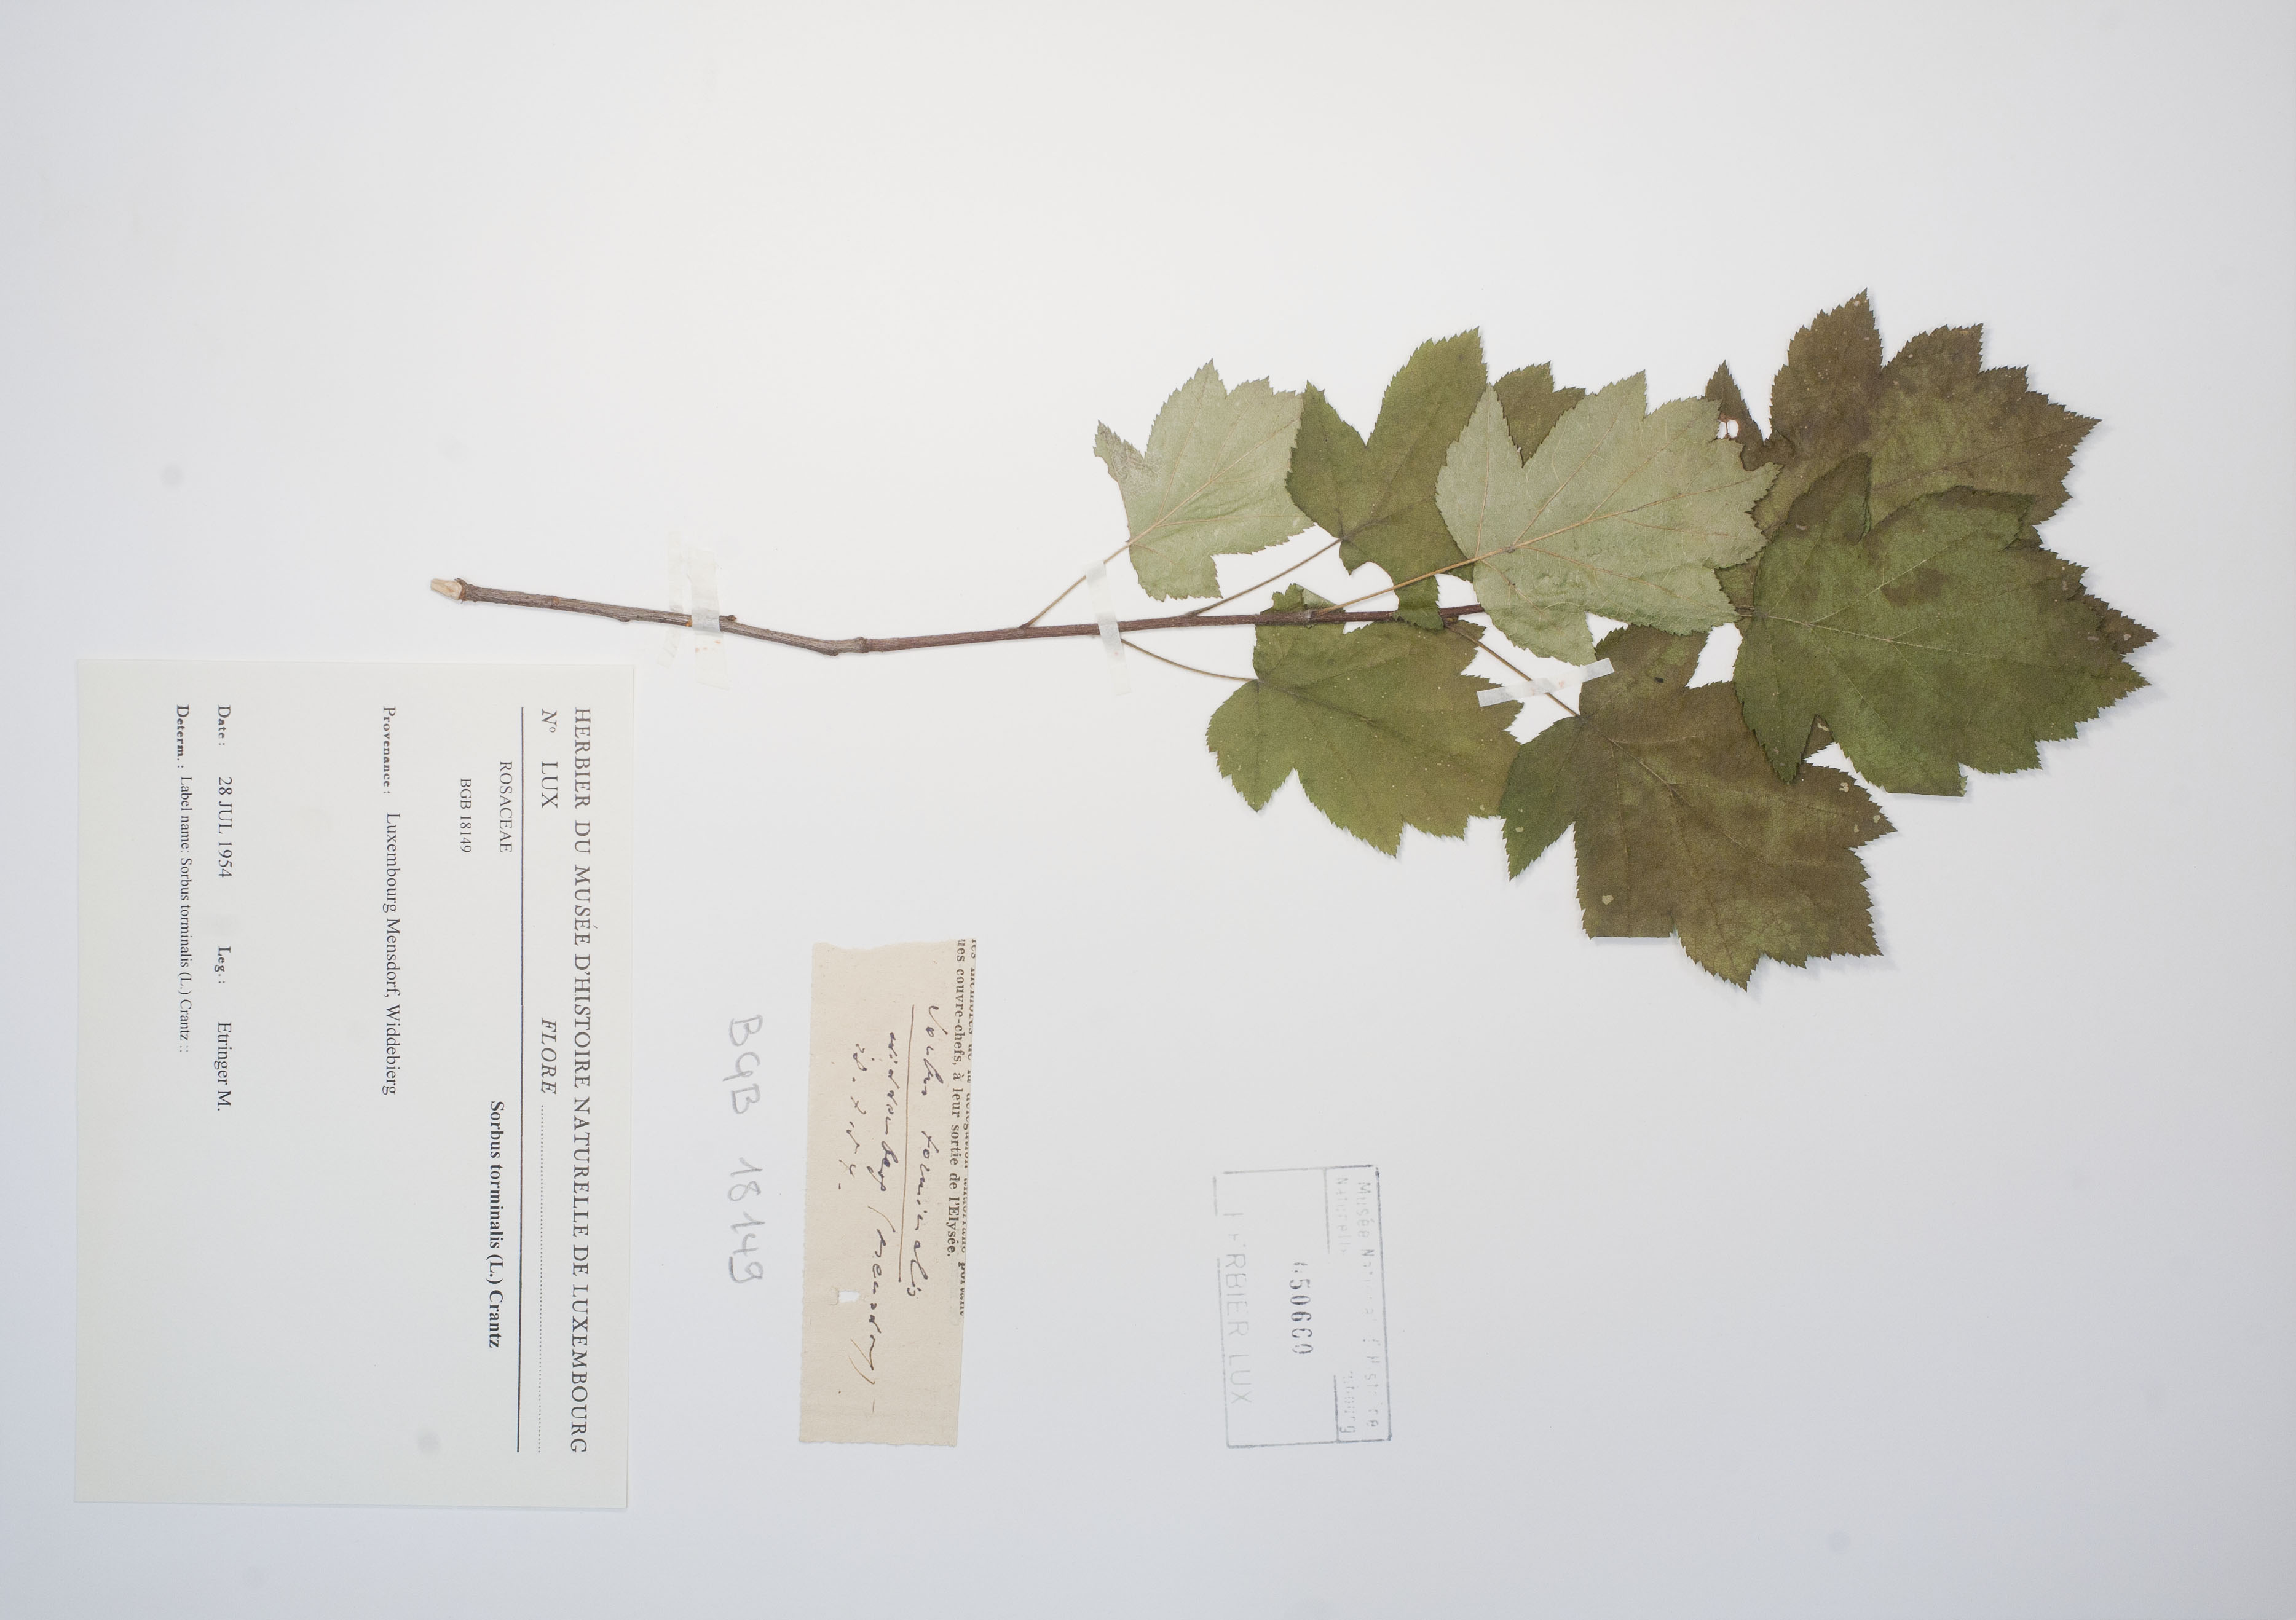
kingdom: Plantae
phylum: Tracheophyta
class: Magnoliopsida
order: Rosales
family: Rosaceae
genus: Torminalis
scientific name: Torminalis glaberrima
